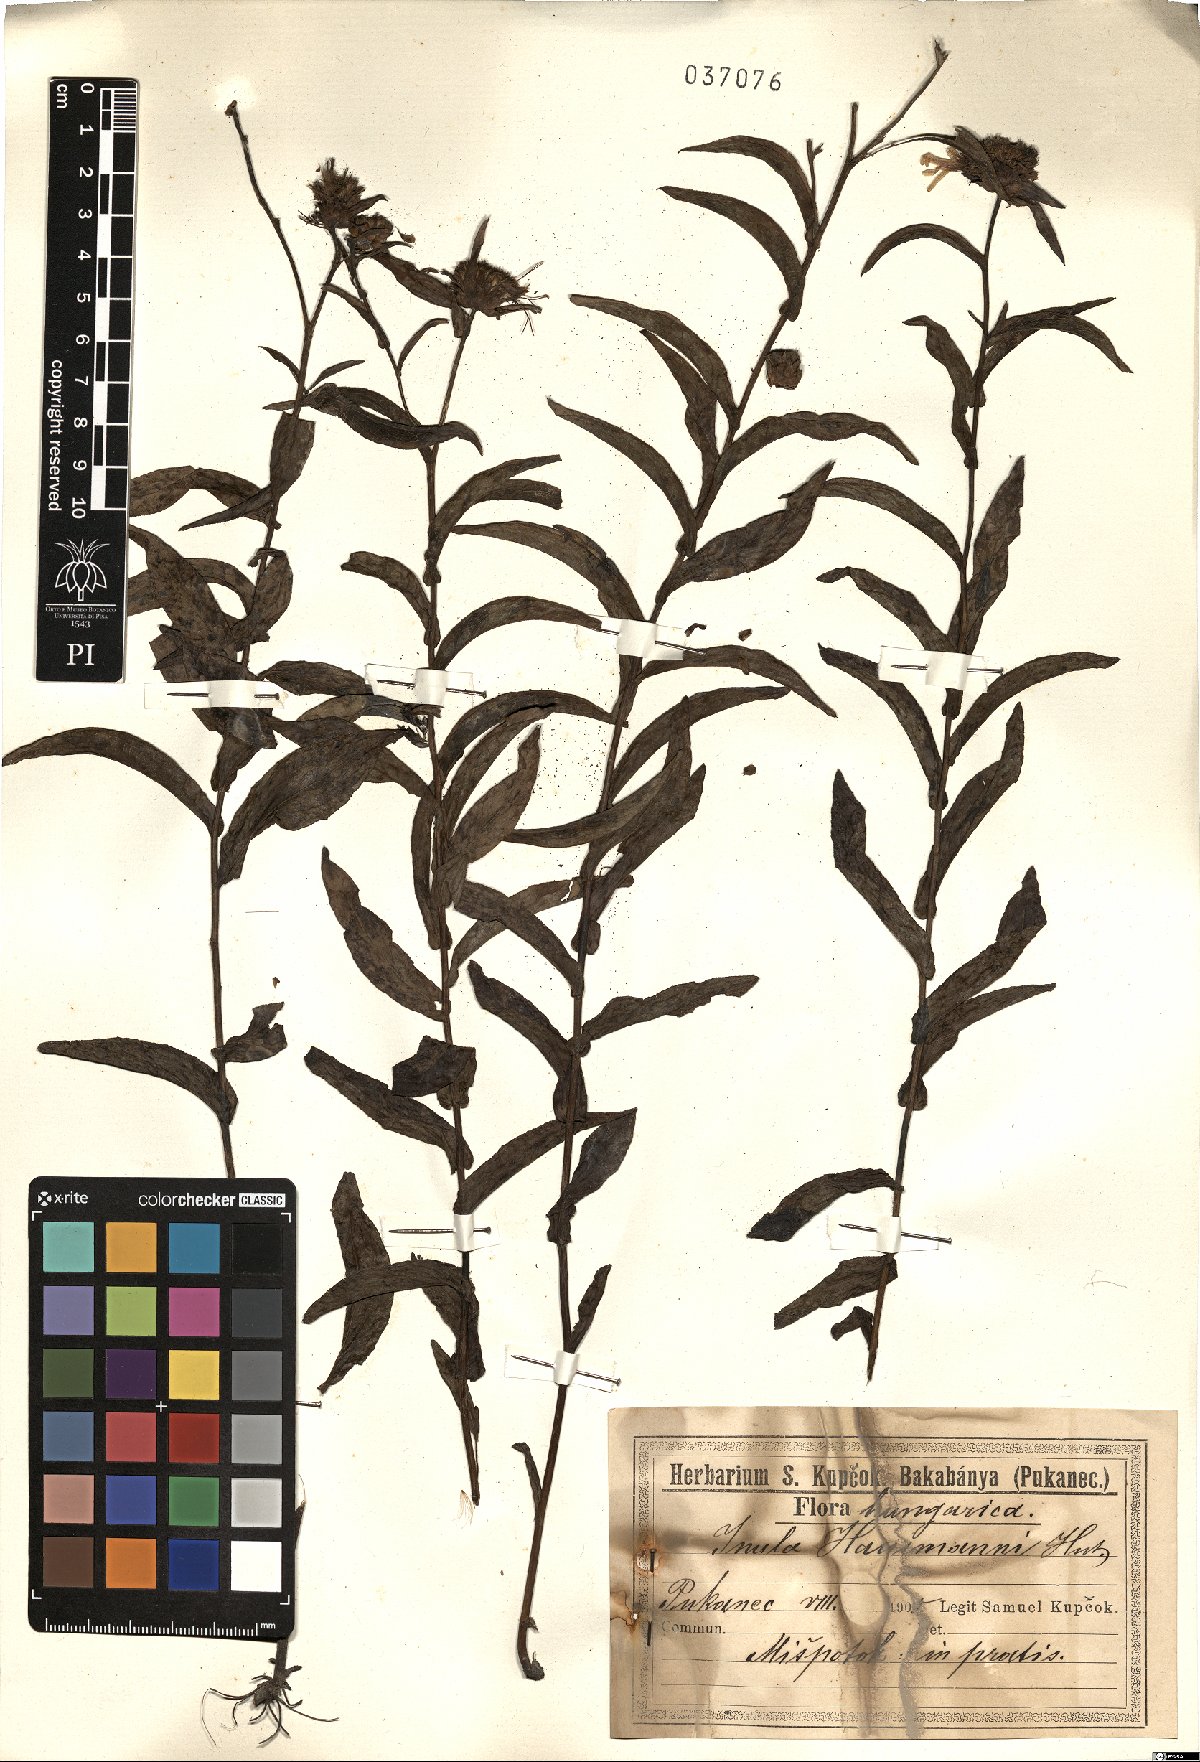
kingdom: Plantae
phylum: Tracheophyta
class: Magnoliopsida
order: Asterales
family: Asteraceae
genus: Pentanema
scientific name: Pentanema hausmannii
